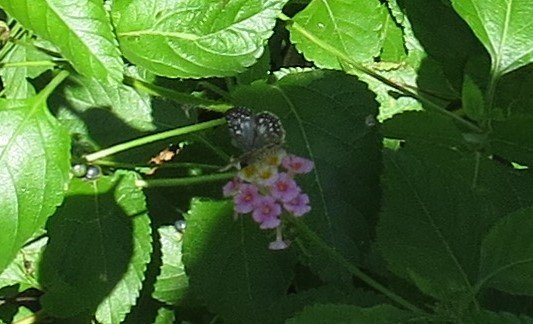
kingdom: Animalia
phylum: Arthropoda
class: Insecta
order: Lepidoptera
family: Hesperiidae
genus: Pyrgus
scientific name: Pyrgus oileus
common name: Tropical Checkered-Skipper
